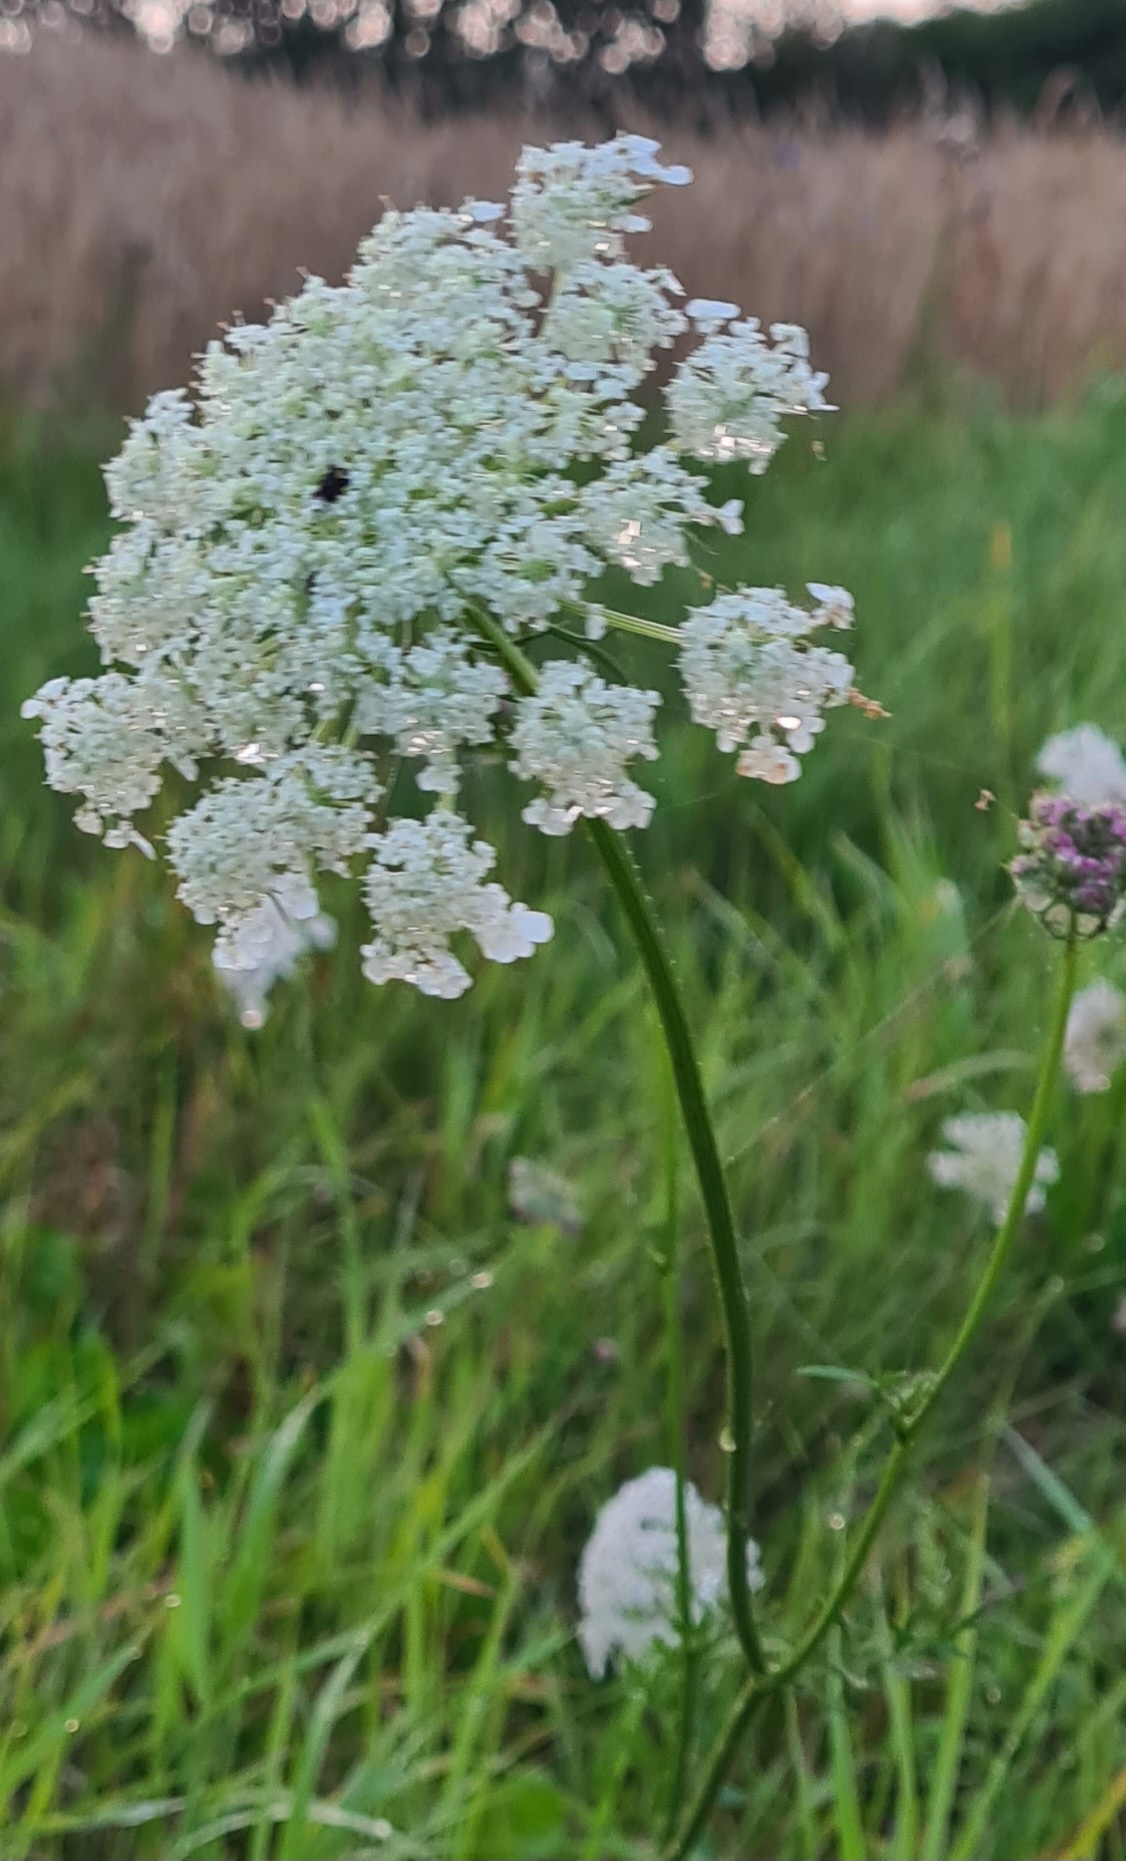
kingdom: Plantae
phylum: Tracheophyta
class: Magnoliopsida
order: Apiales
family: Apiaceae
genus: Daucus
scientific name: Daucus carota
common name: Gulerod
